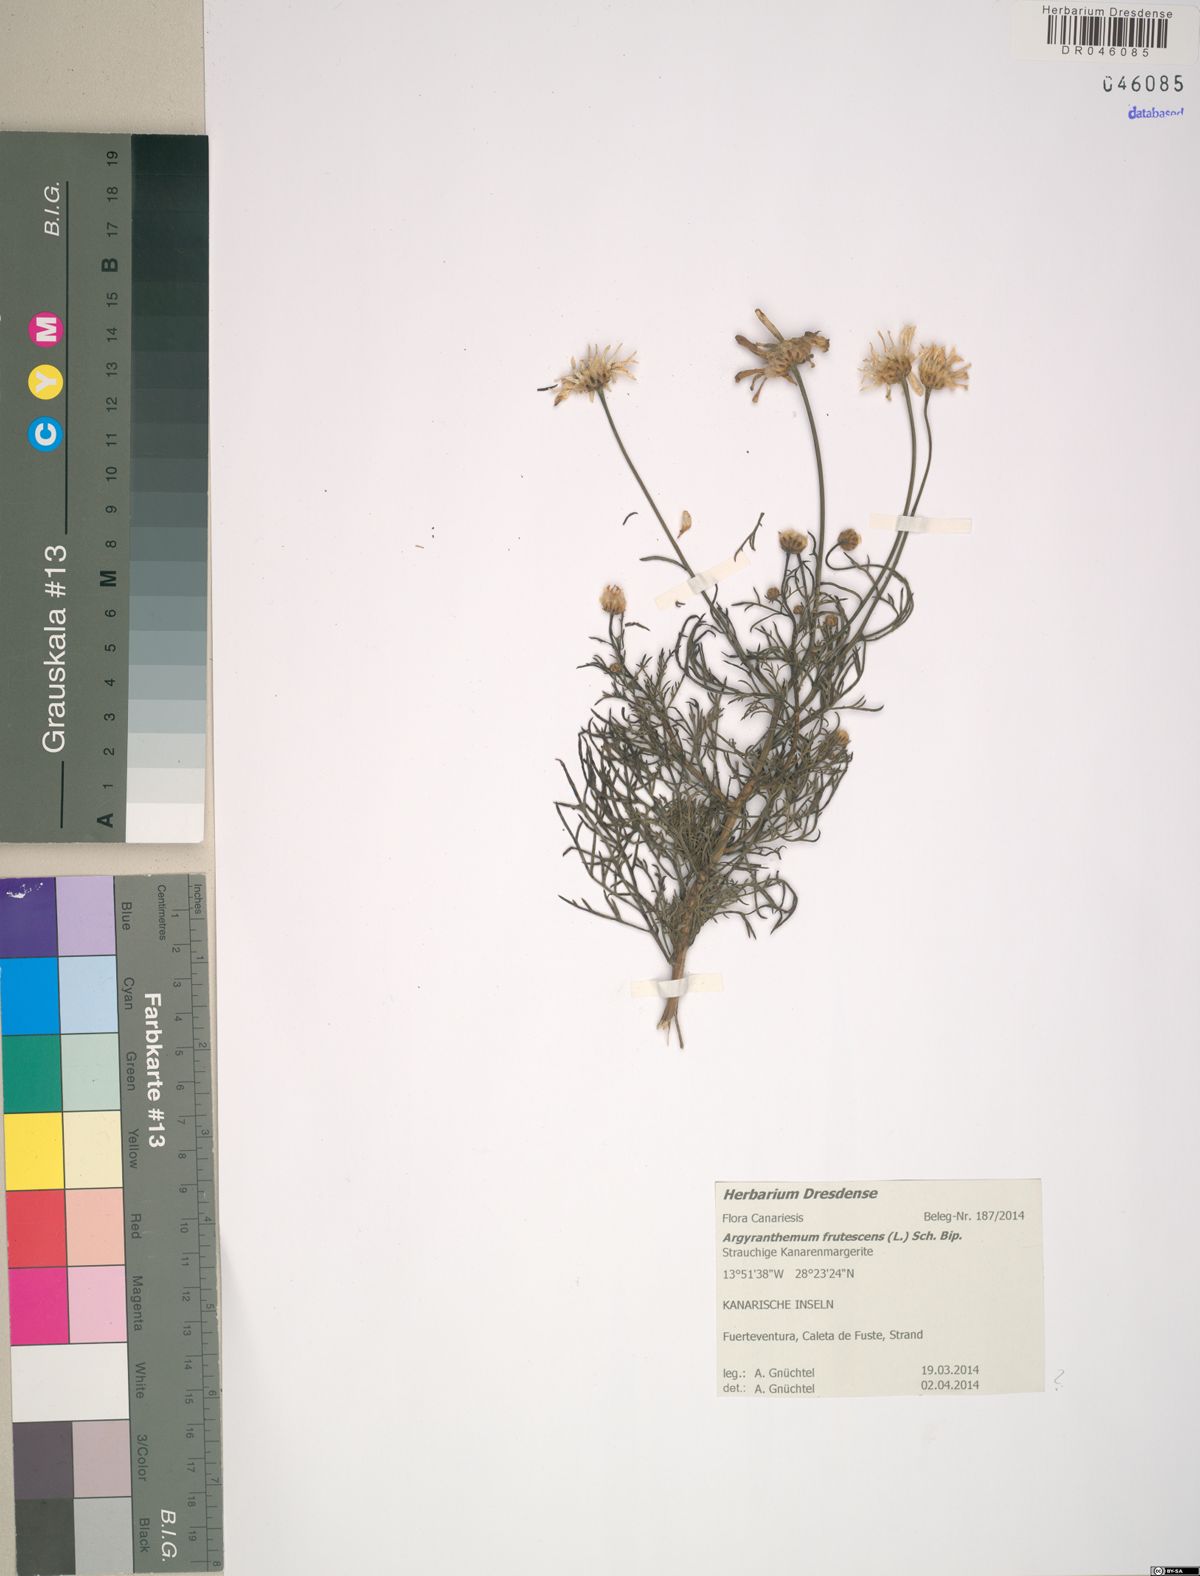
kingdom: Plantae
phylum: Tracheophyta
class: Magnoliopsida
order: Asterales
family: Asteraceae
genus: Argyranthemum
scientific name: Argyranthemum frutescens
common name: Paris daisy
